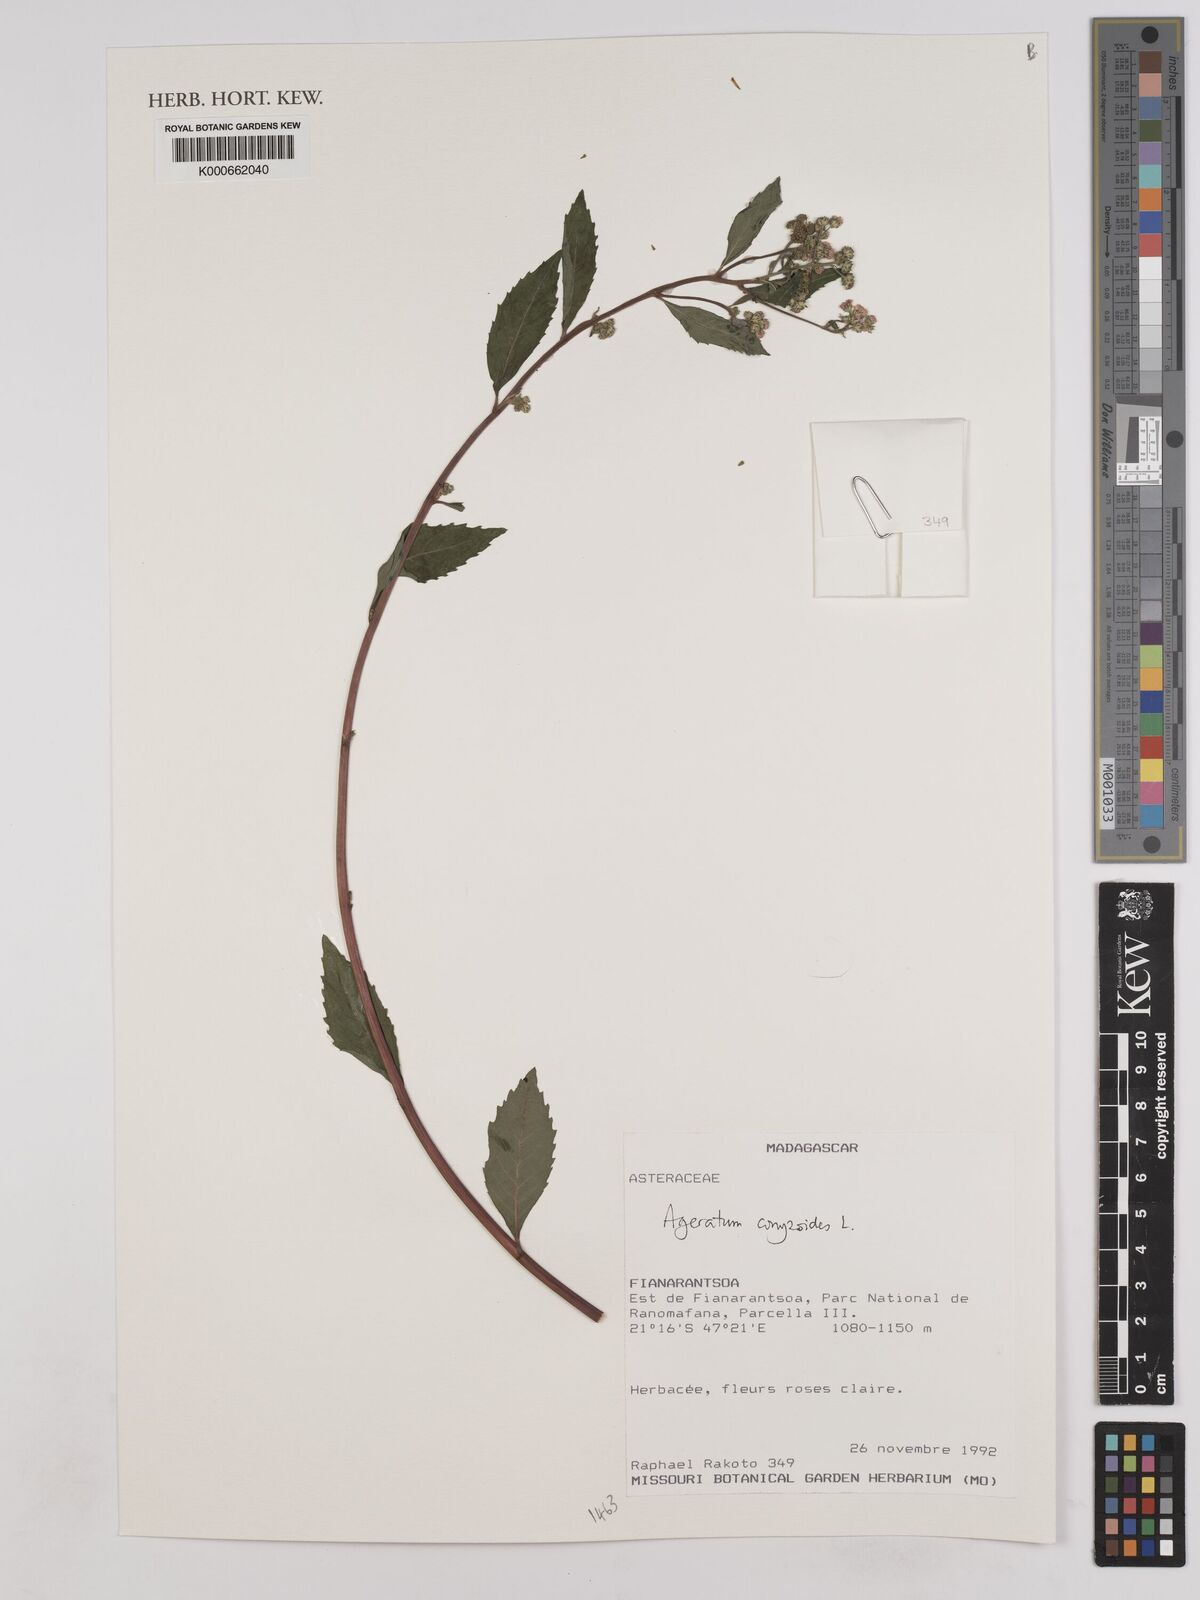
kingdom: Plantae
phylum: Tracheophyta
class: Magnoliopsida
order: Asterales
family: Asteraceae
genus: Ageratum
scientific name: Ageratum conyzoides
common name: Tropical whiteweed
